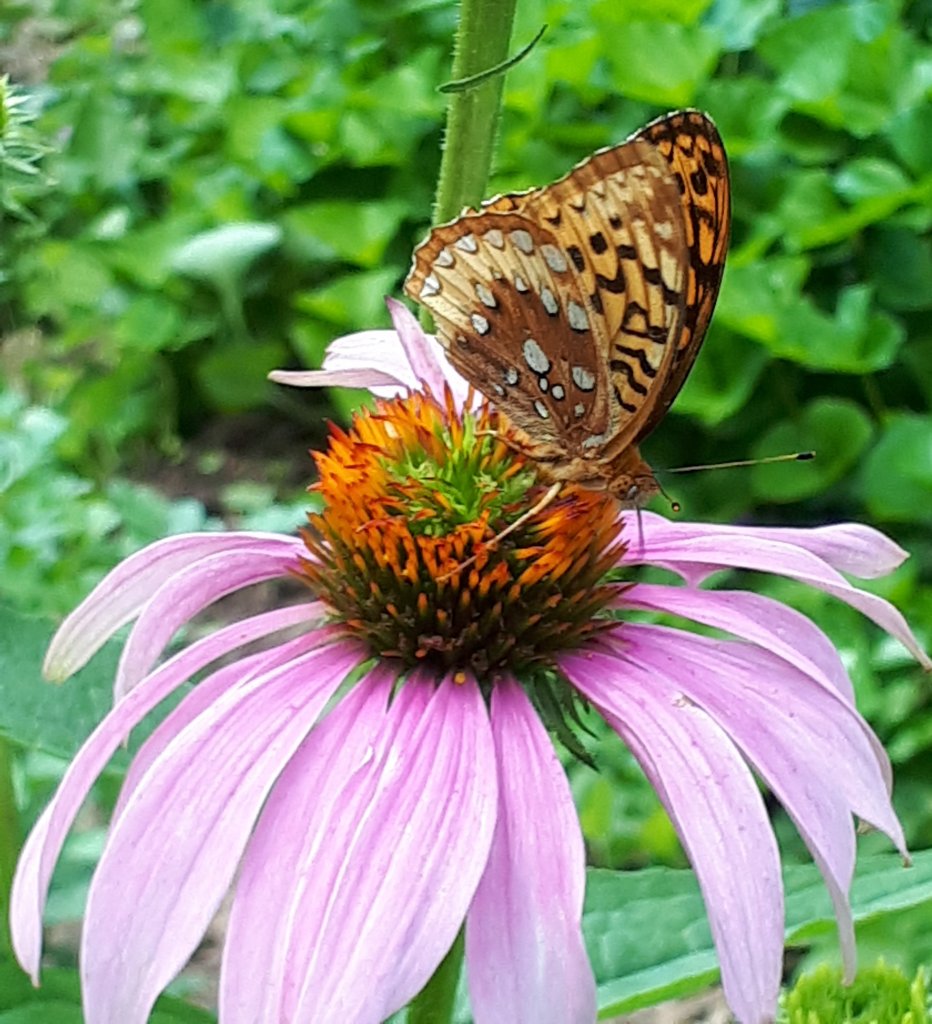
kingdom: Animalia
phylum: Arthropoda
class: Insecta
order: Lepidoptera
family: Nymphalidae
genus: Speyeria
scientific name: Speyeria cybele
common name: Great Spangled Fritillary
